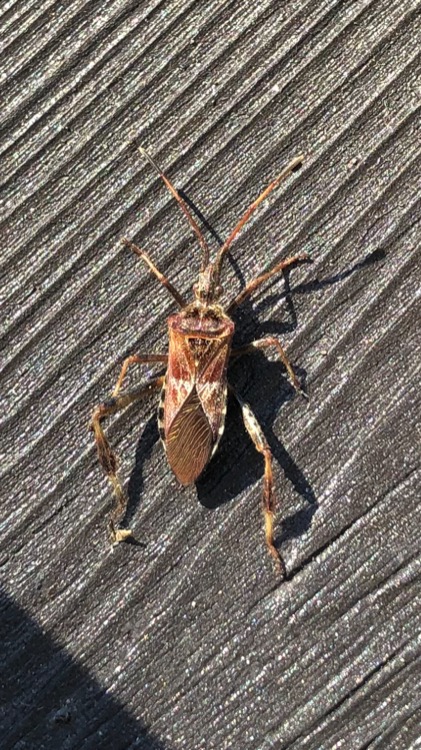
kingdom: Animalia
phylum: Arthropoda
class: Insecta
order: Hemiptera
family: Coreidae
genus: Leptoglossus
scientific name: Leptoglossus occidentalis
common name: Amerikansk fyrretæge
